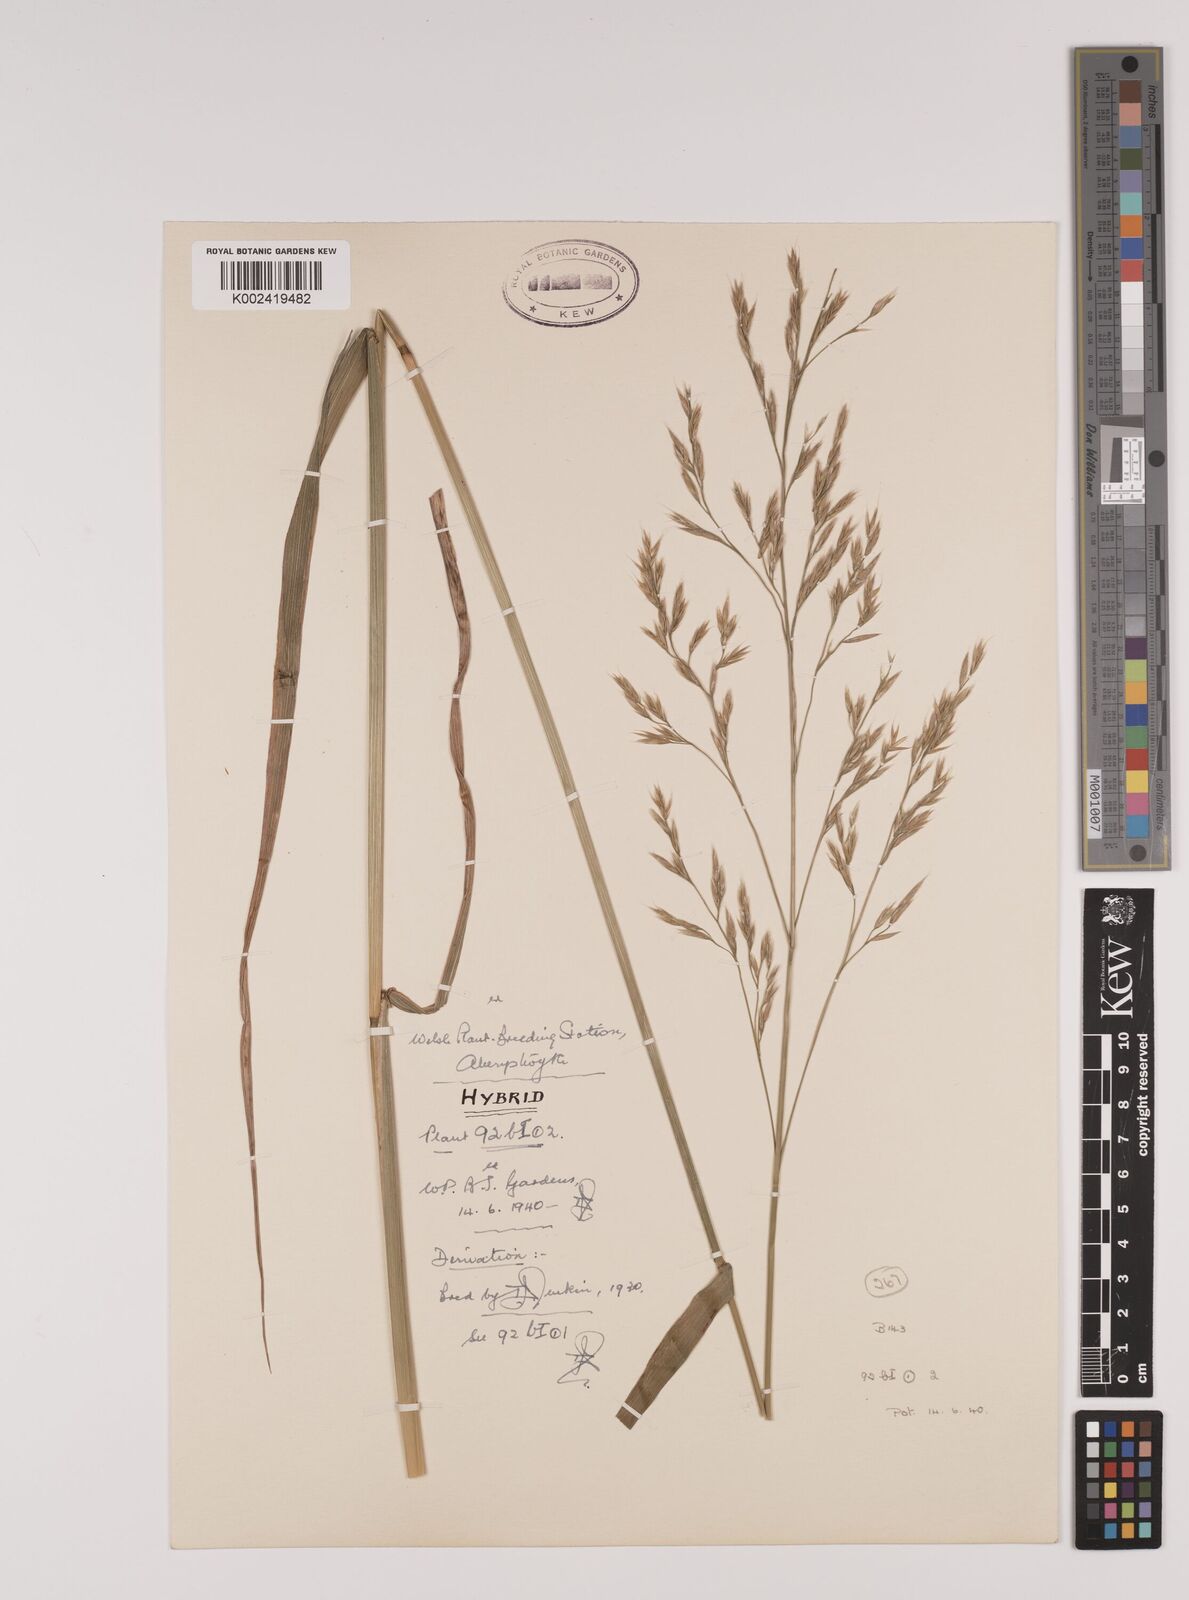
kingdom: Plantae
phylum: Tracheophyta
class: Liliopsida
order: Poales
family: Poaceae
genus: Lolium
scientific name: Lolium giganteum
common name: Giant fescue
